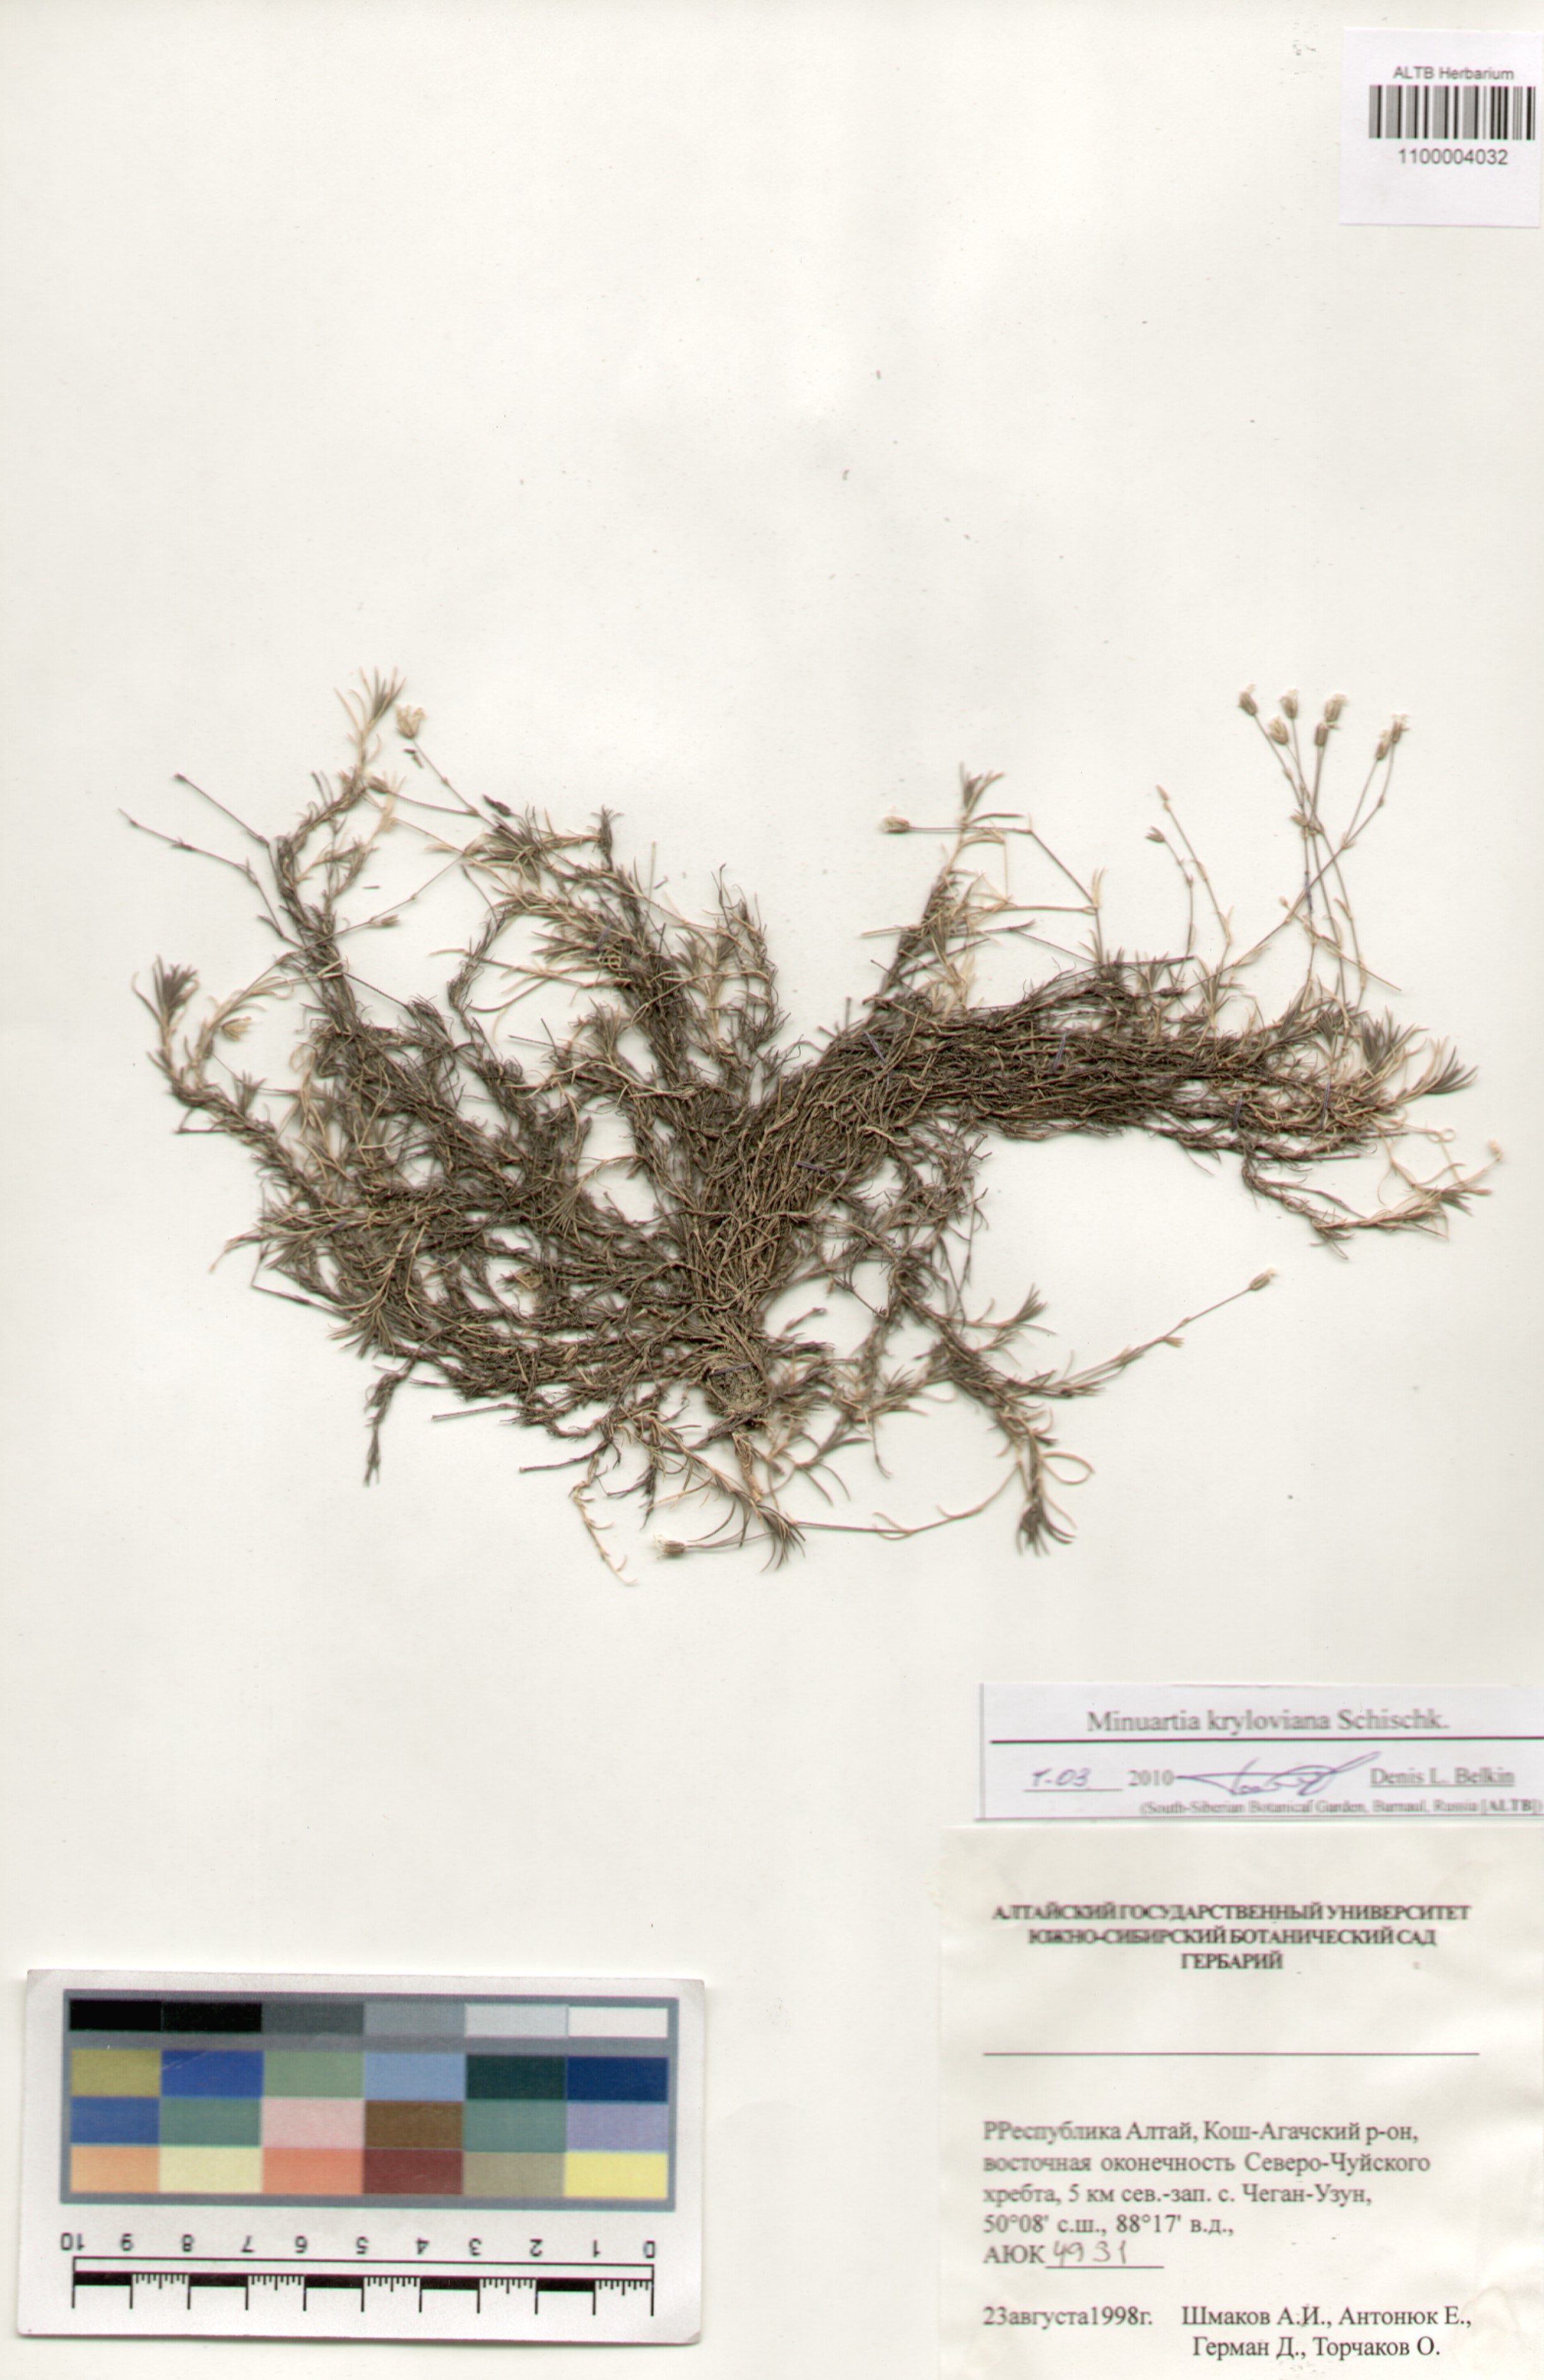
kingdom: Plantae
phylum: Tracheophyta
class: Magnoliopsida
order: Caryophyllales
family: Caryophyllaceae
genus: Sabulina
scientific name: Sabulina kryloviana
